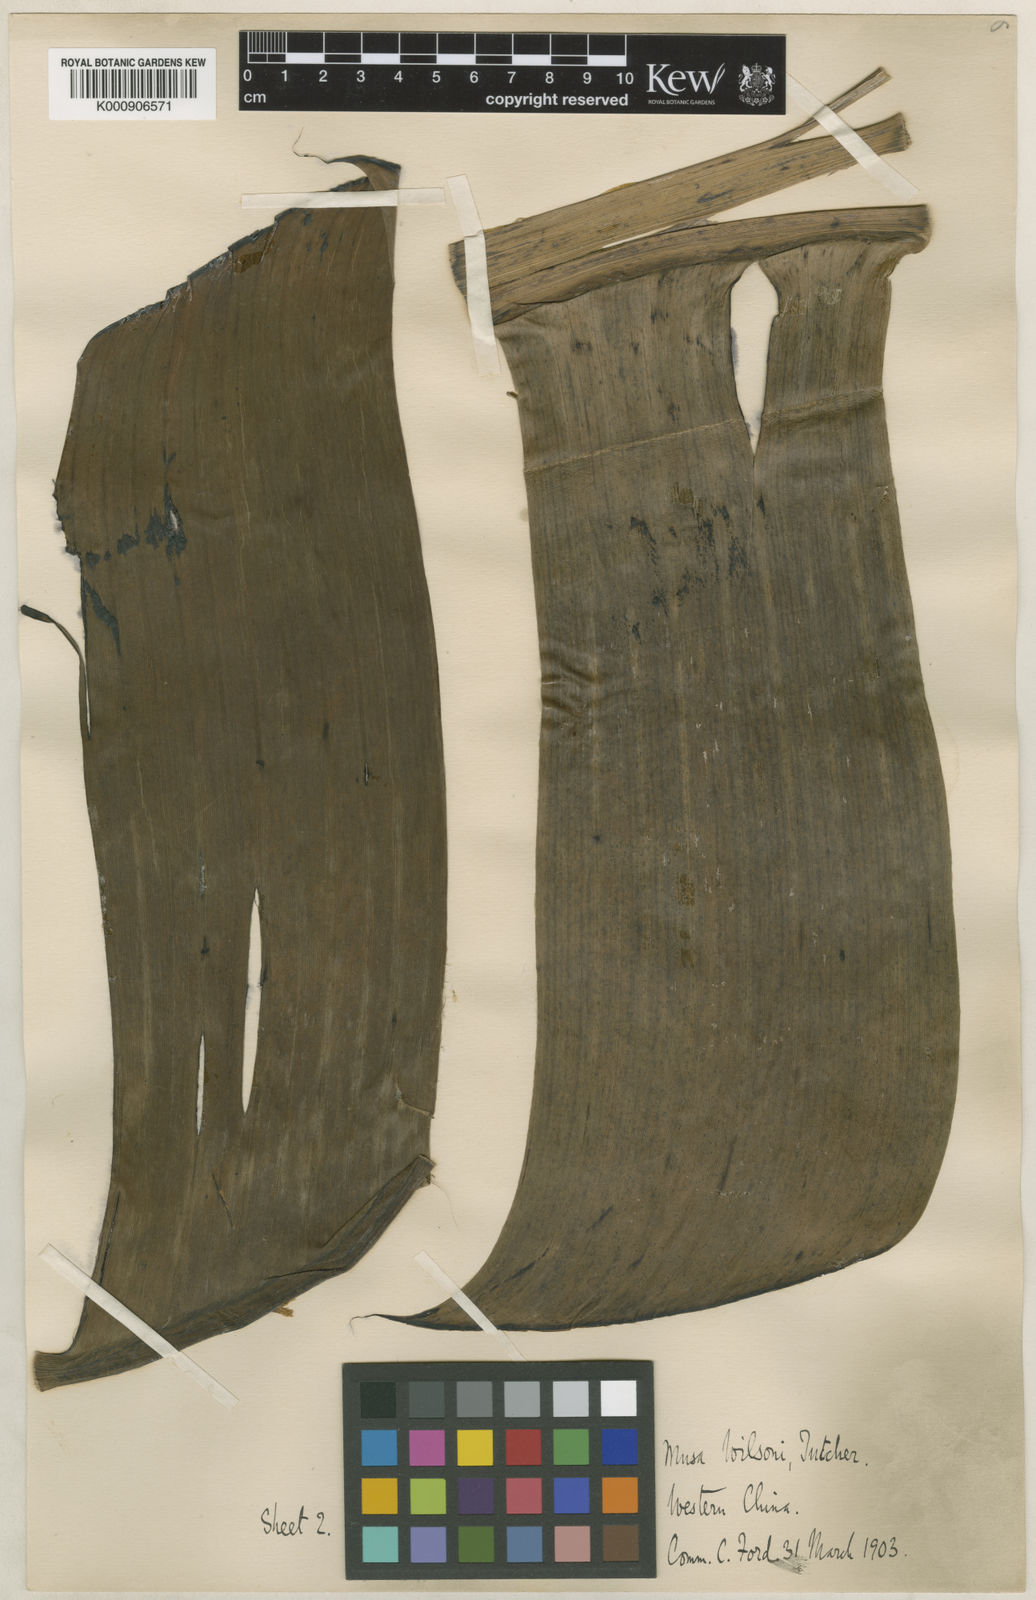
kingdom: Plantae
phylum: Tracheophyta
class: Liliopsida
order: Zingiberales
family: Musaceae
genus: Ensete
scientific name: Ensete glaucum
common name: Snow banana
